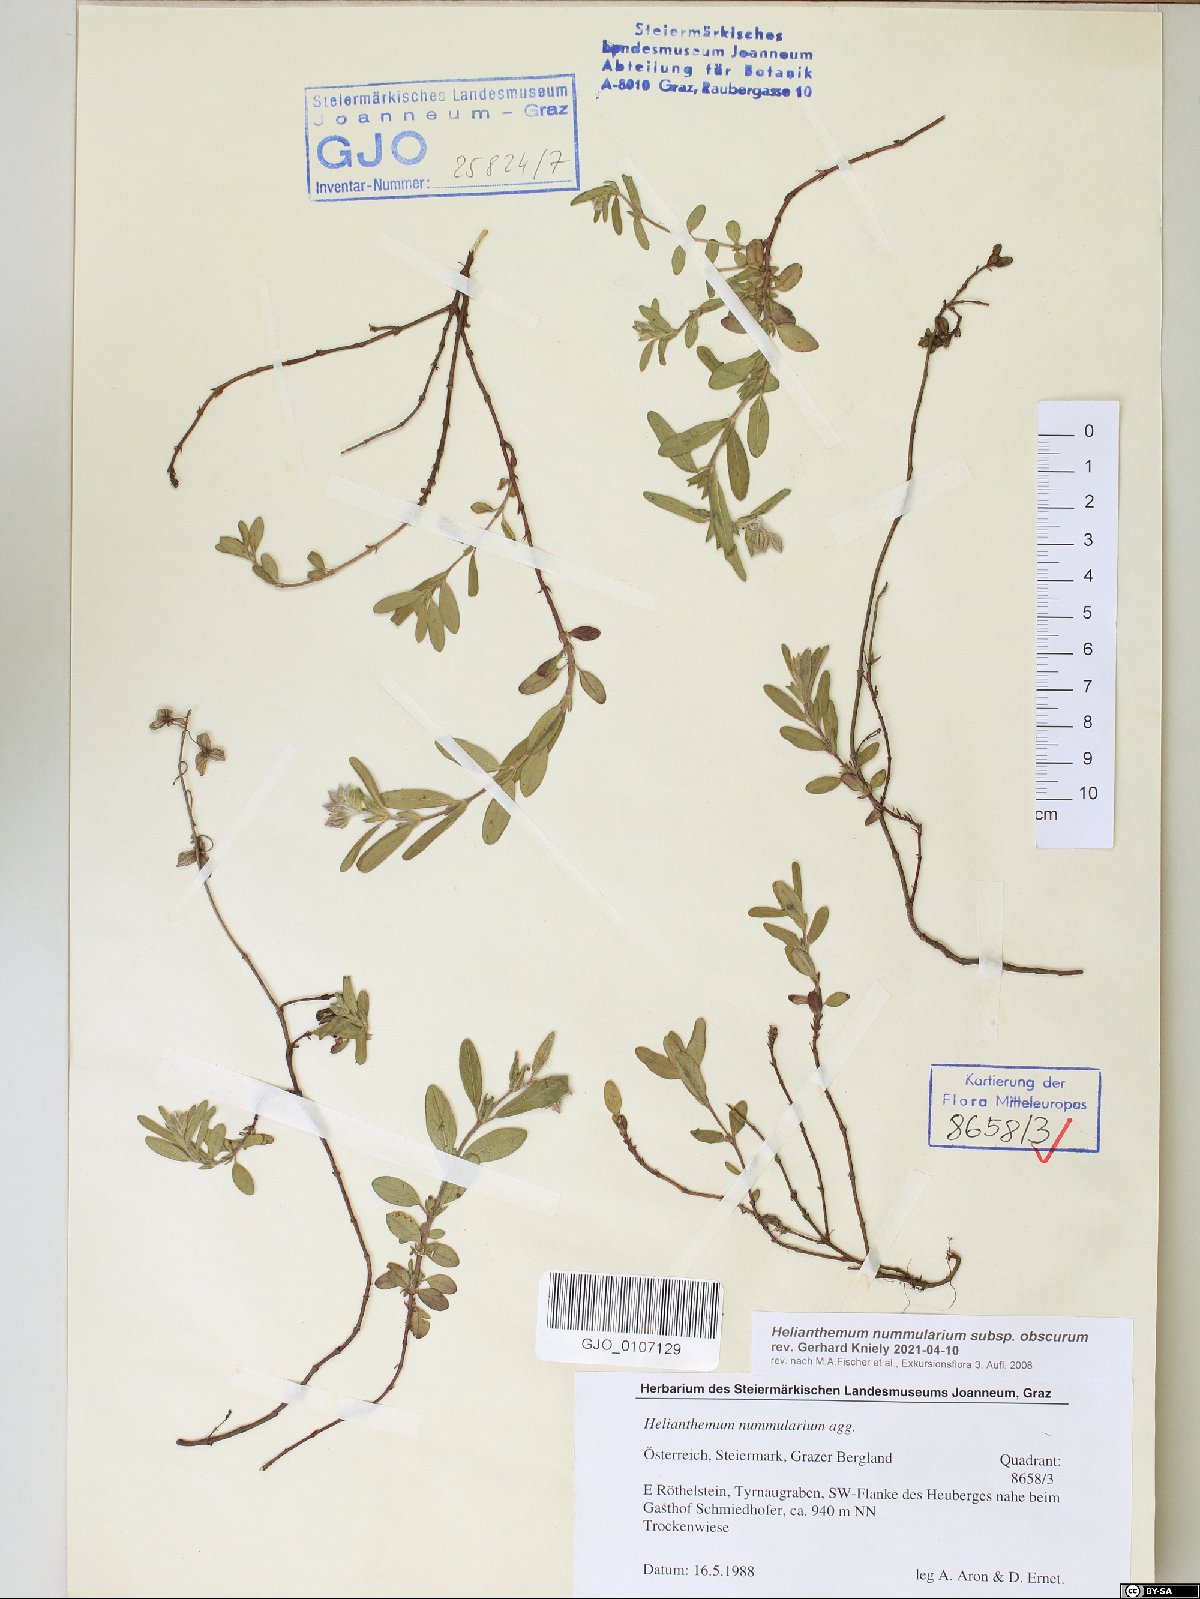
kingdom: Plantae
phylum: Tracheophyta
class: Magnoliopsida
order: Malvales
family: Cistaceae
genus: Helianthemum
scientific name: Helianthemum nummularium
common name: Common rock-rose
